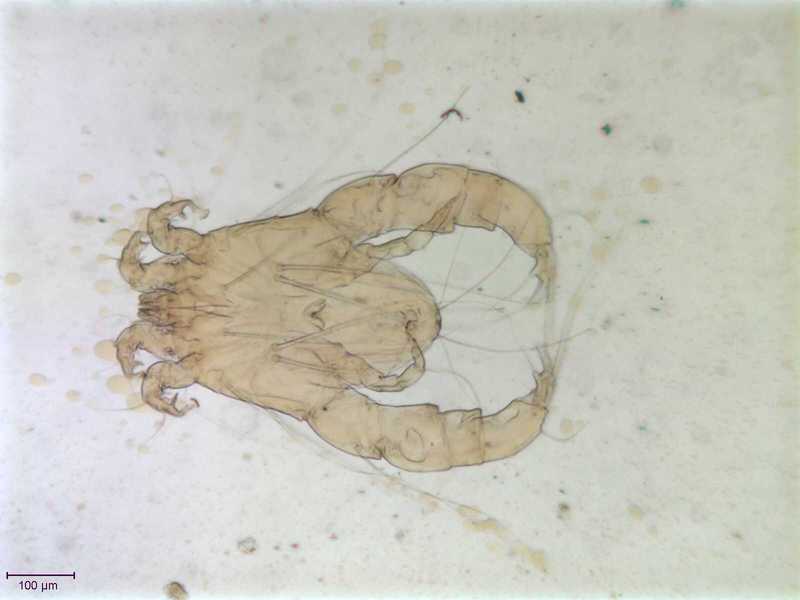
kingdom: Animalia
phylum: Arthropoda
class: Arachnida
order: Sarcoptiformes
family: Analgidae
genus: Analges
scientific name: Analges
